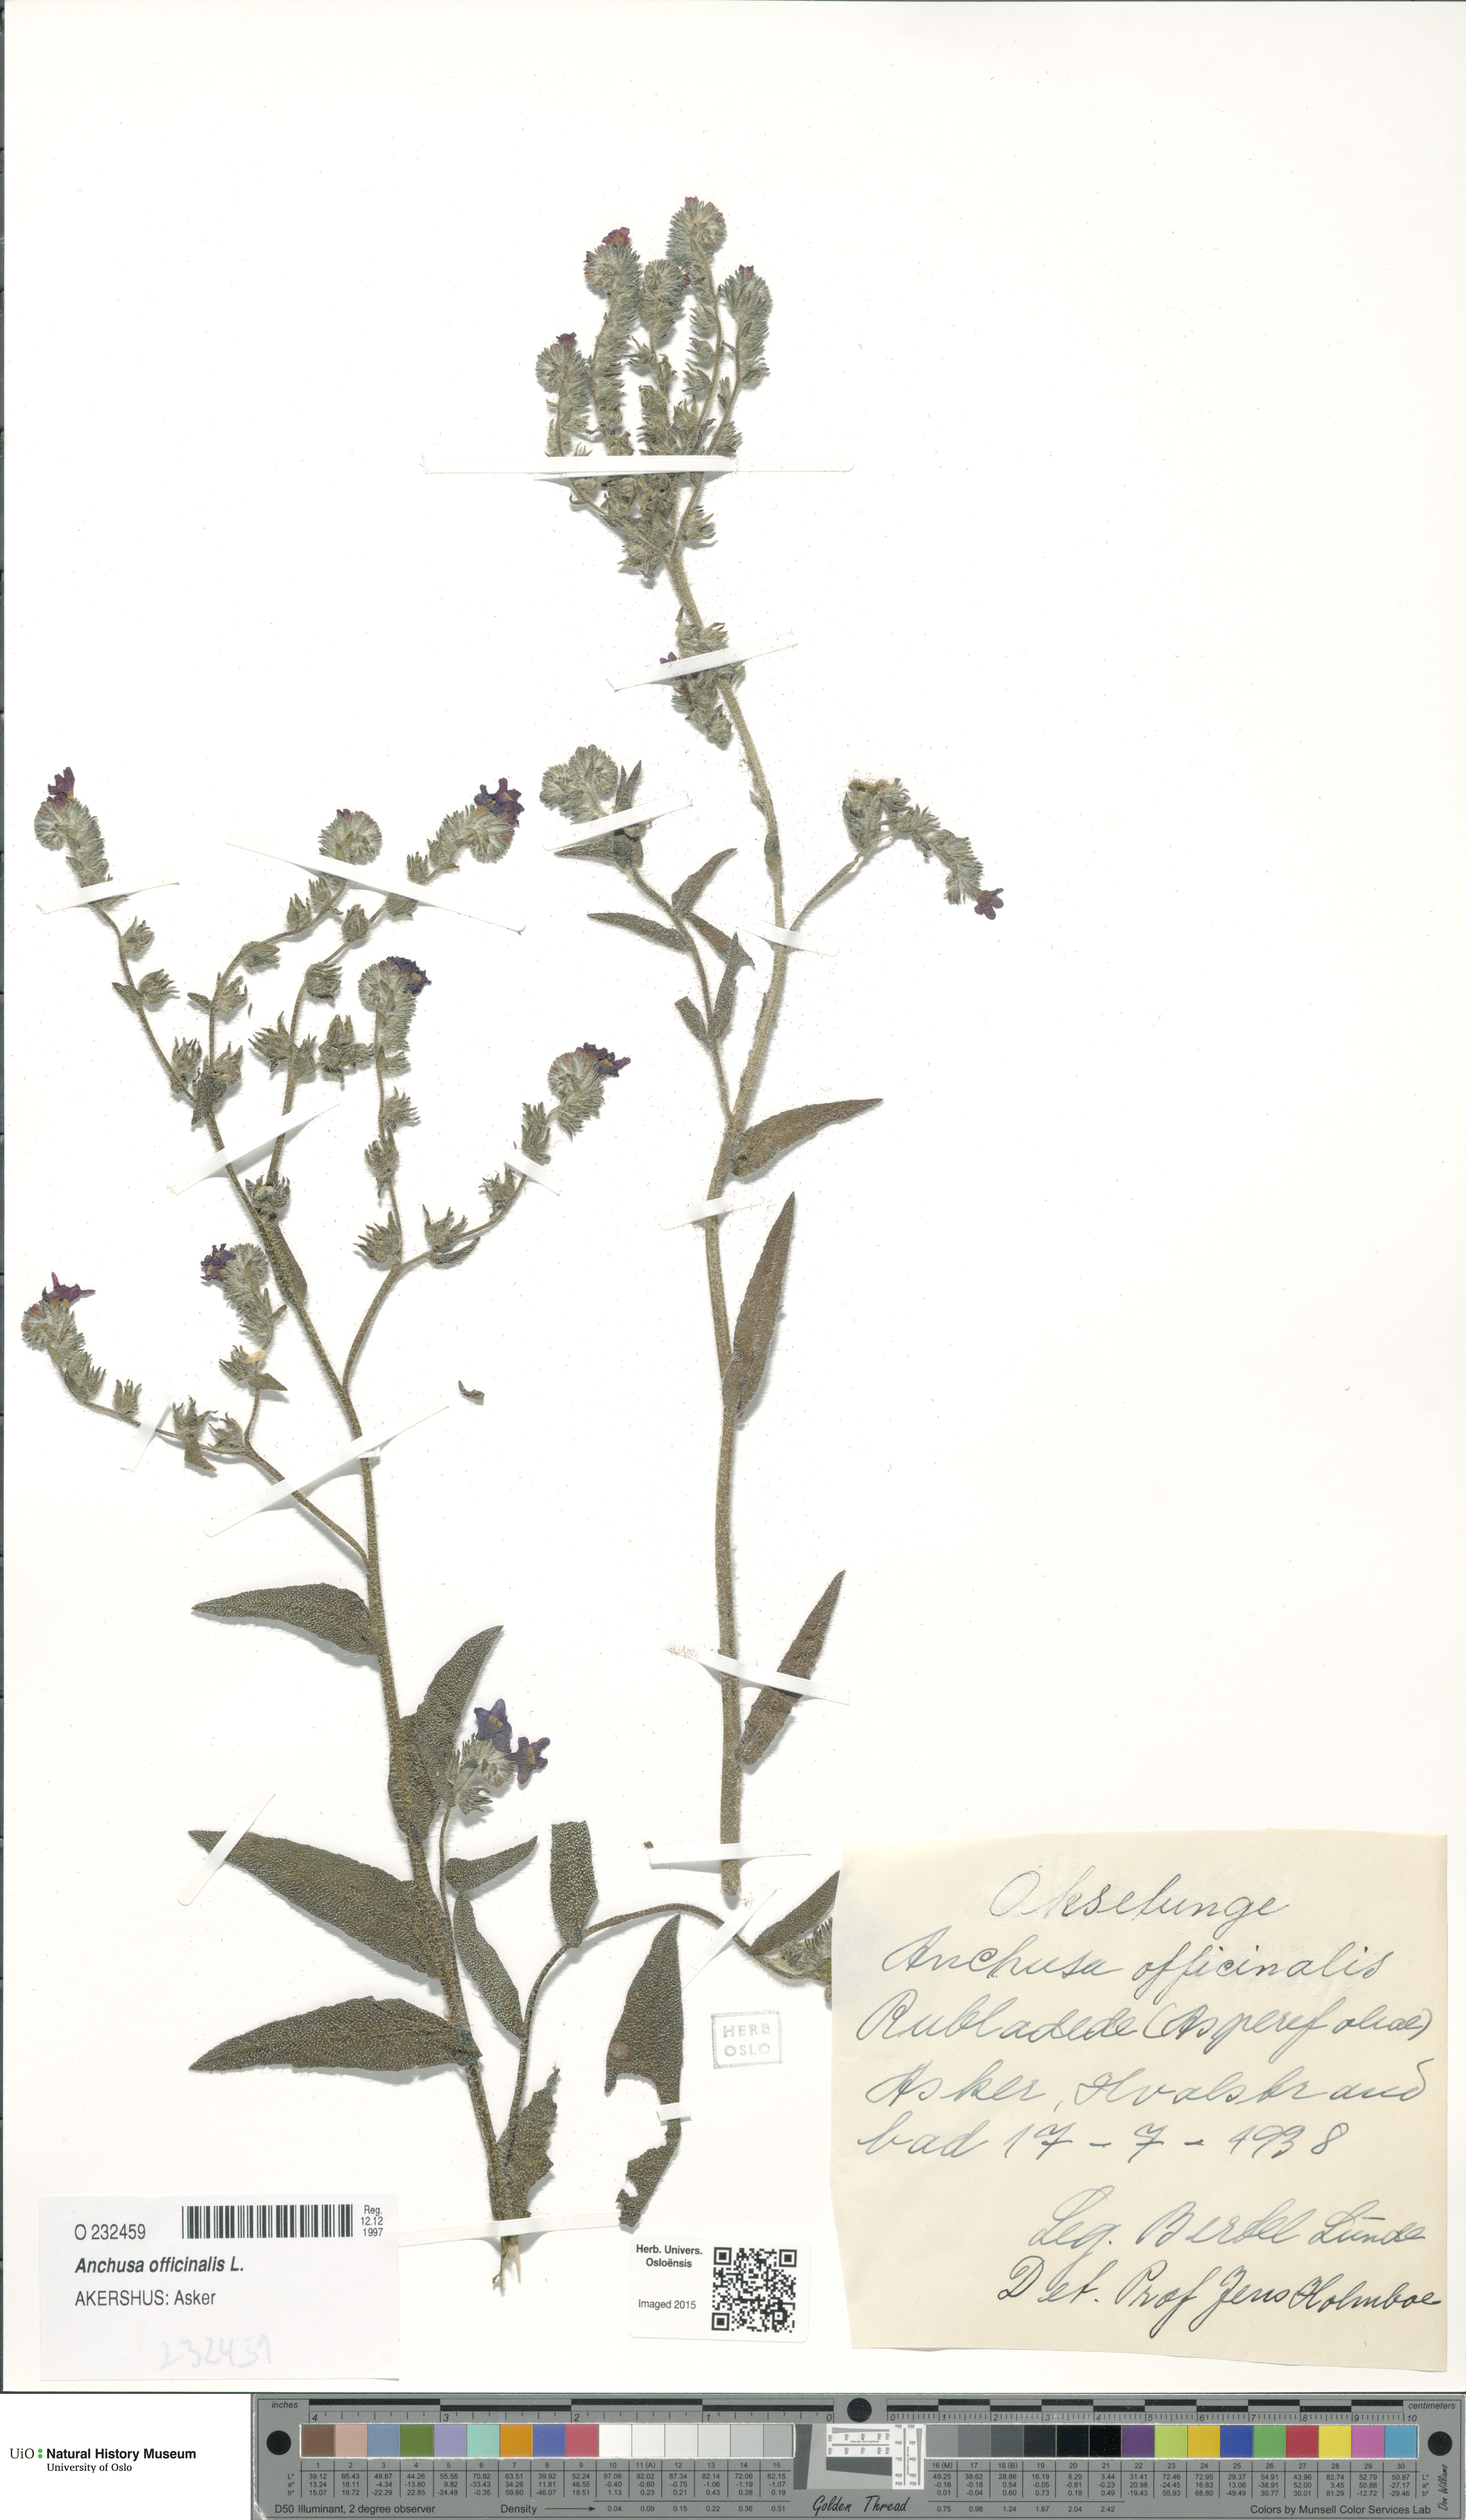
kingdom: Plantae
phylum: Tracheophyta
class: Magnoliopsida
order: Boraginales
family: Boraginaceae
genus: Anchusa
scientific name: Anchusa officinalis
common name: Alkanet
